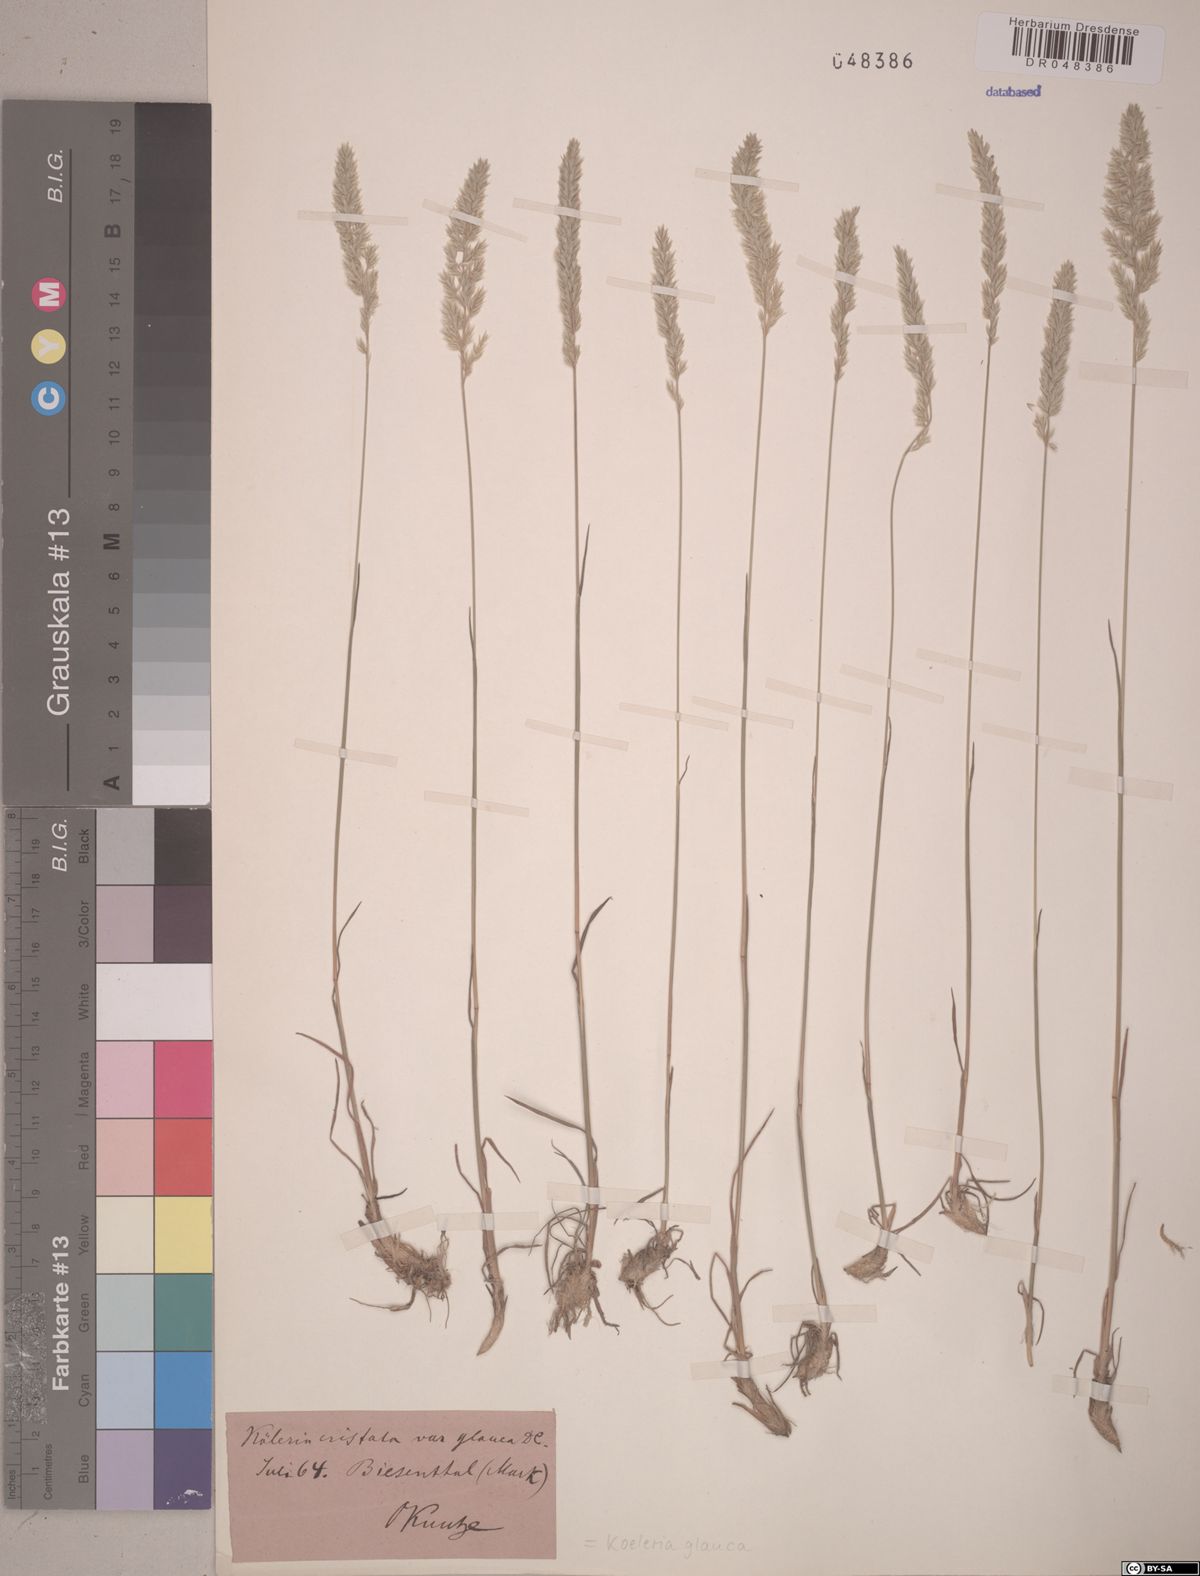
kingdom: Plantae
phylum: Tracheophyta
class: Liliopsida
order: Poales
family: Poaceae
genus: Koeleria
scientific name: Koeleria glauca
